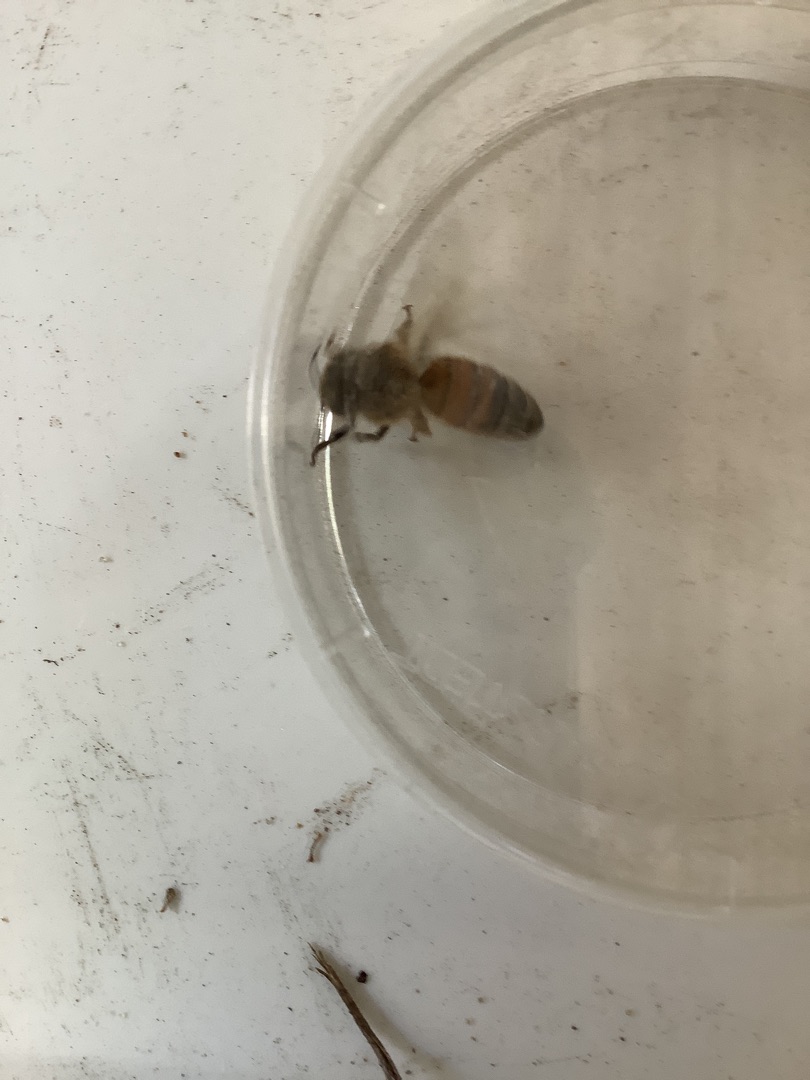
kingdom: Animalia
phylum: Arthropoda
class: Insecta
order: Hymenoptera
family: Apidae
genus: Apis
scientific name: Apis mellifera
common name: Honningbi
